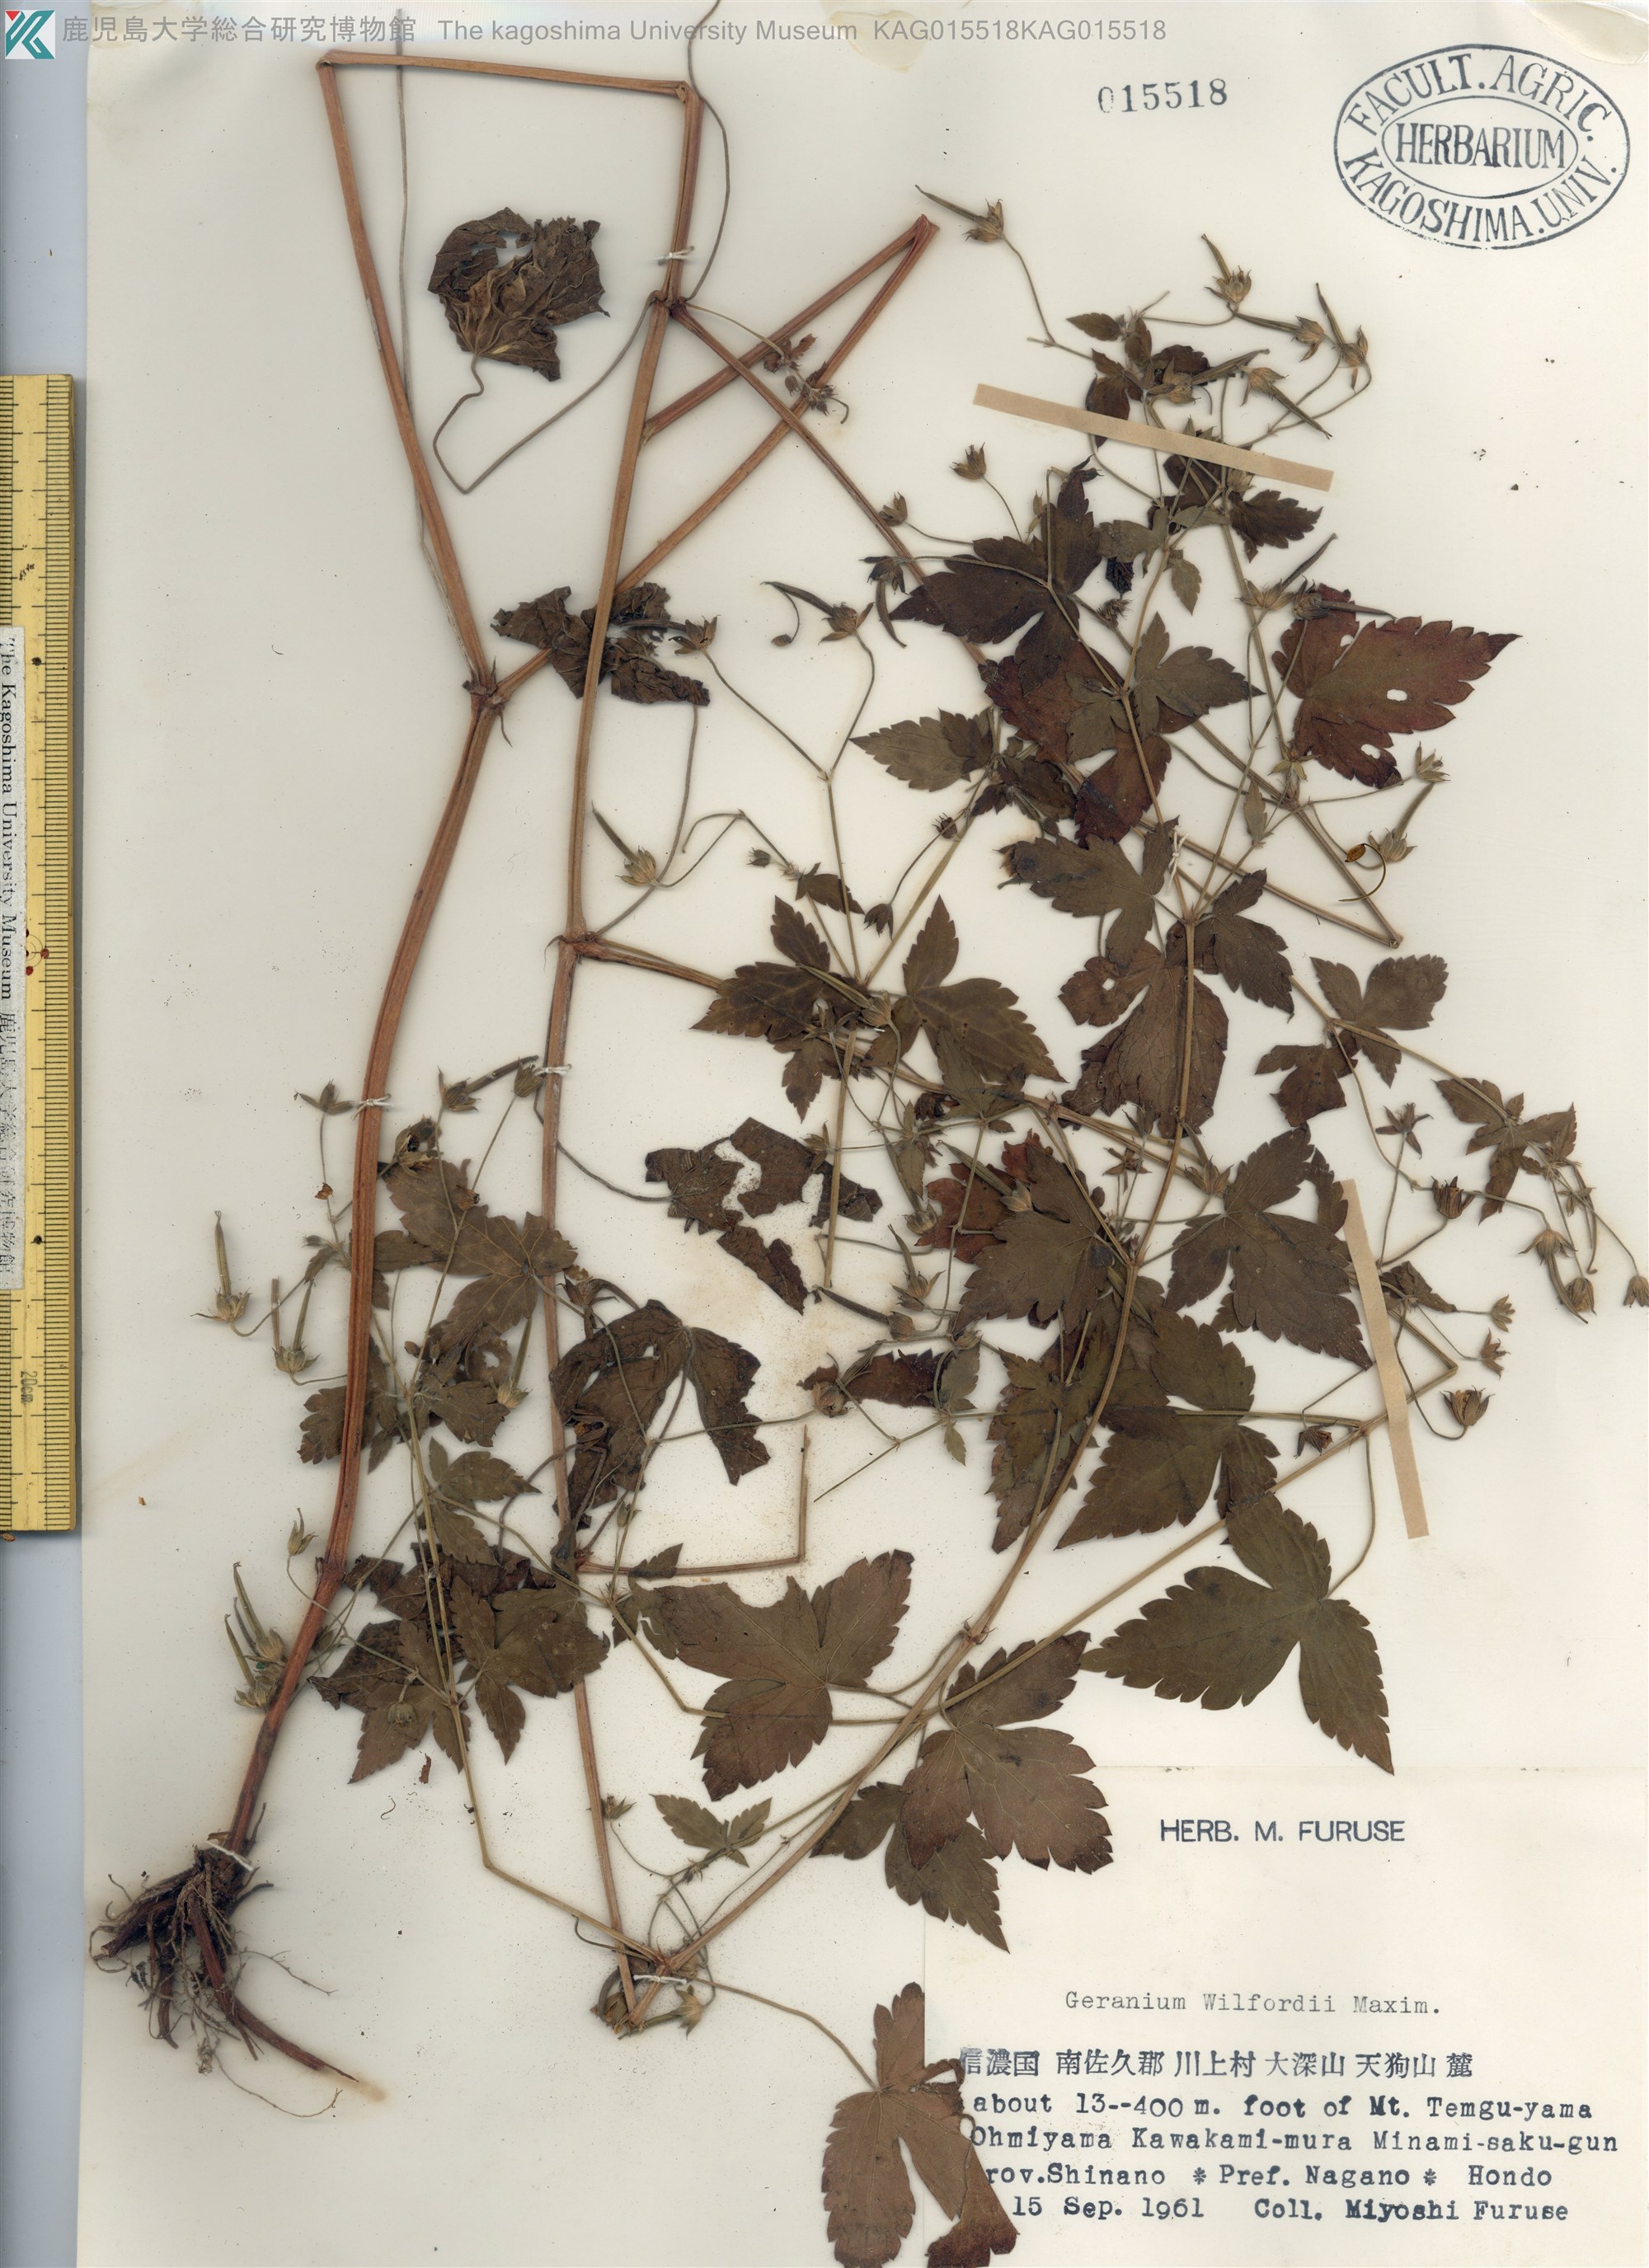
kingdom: Plantae
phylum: Tracheophyta
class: Magnoliopsida
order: Geraniales
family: Geraniaceae
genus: Geranium
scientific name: Geranium wilfordii
